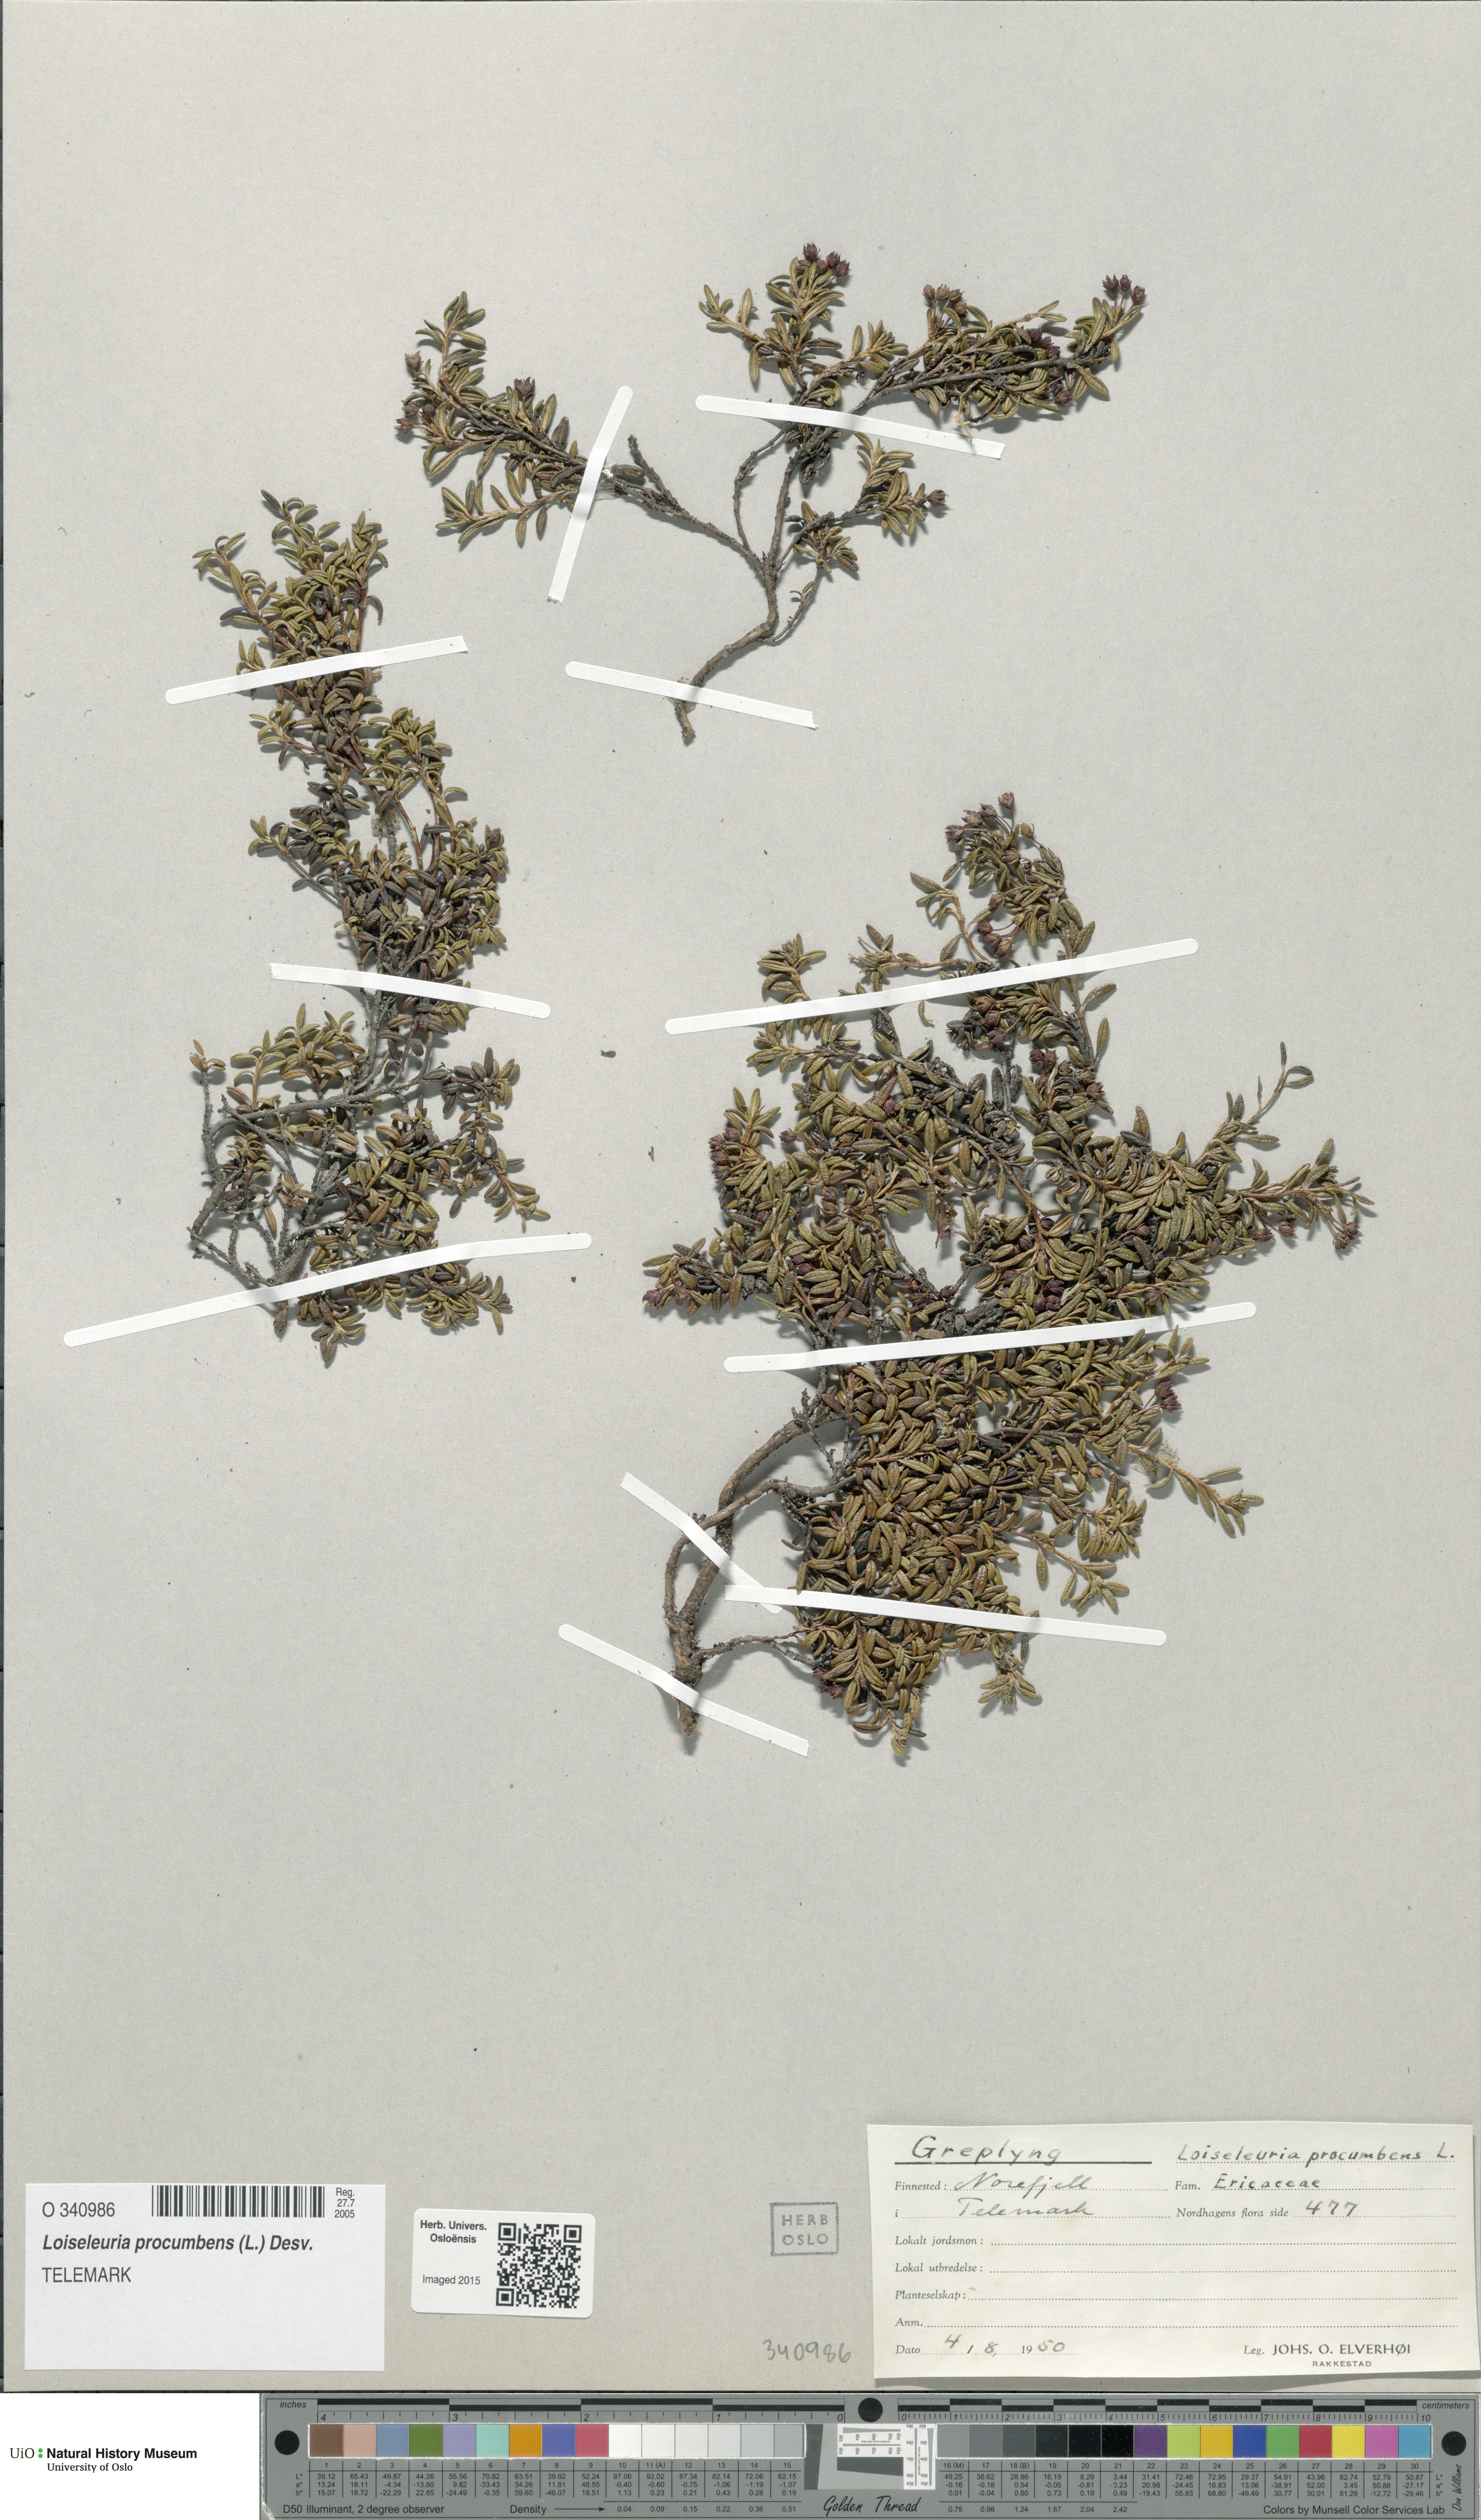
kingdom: Plantae
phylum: Tracheophyta
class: Magnoliopsida
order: Ericales
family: Ericaceae
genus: Kalmia
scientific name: Kalmia procumbens
